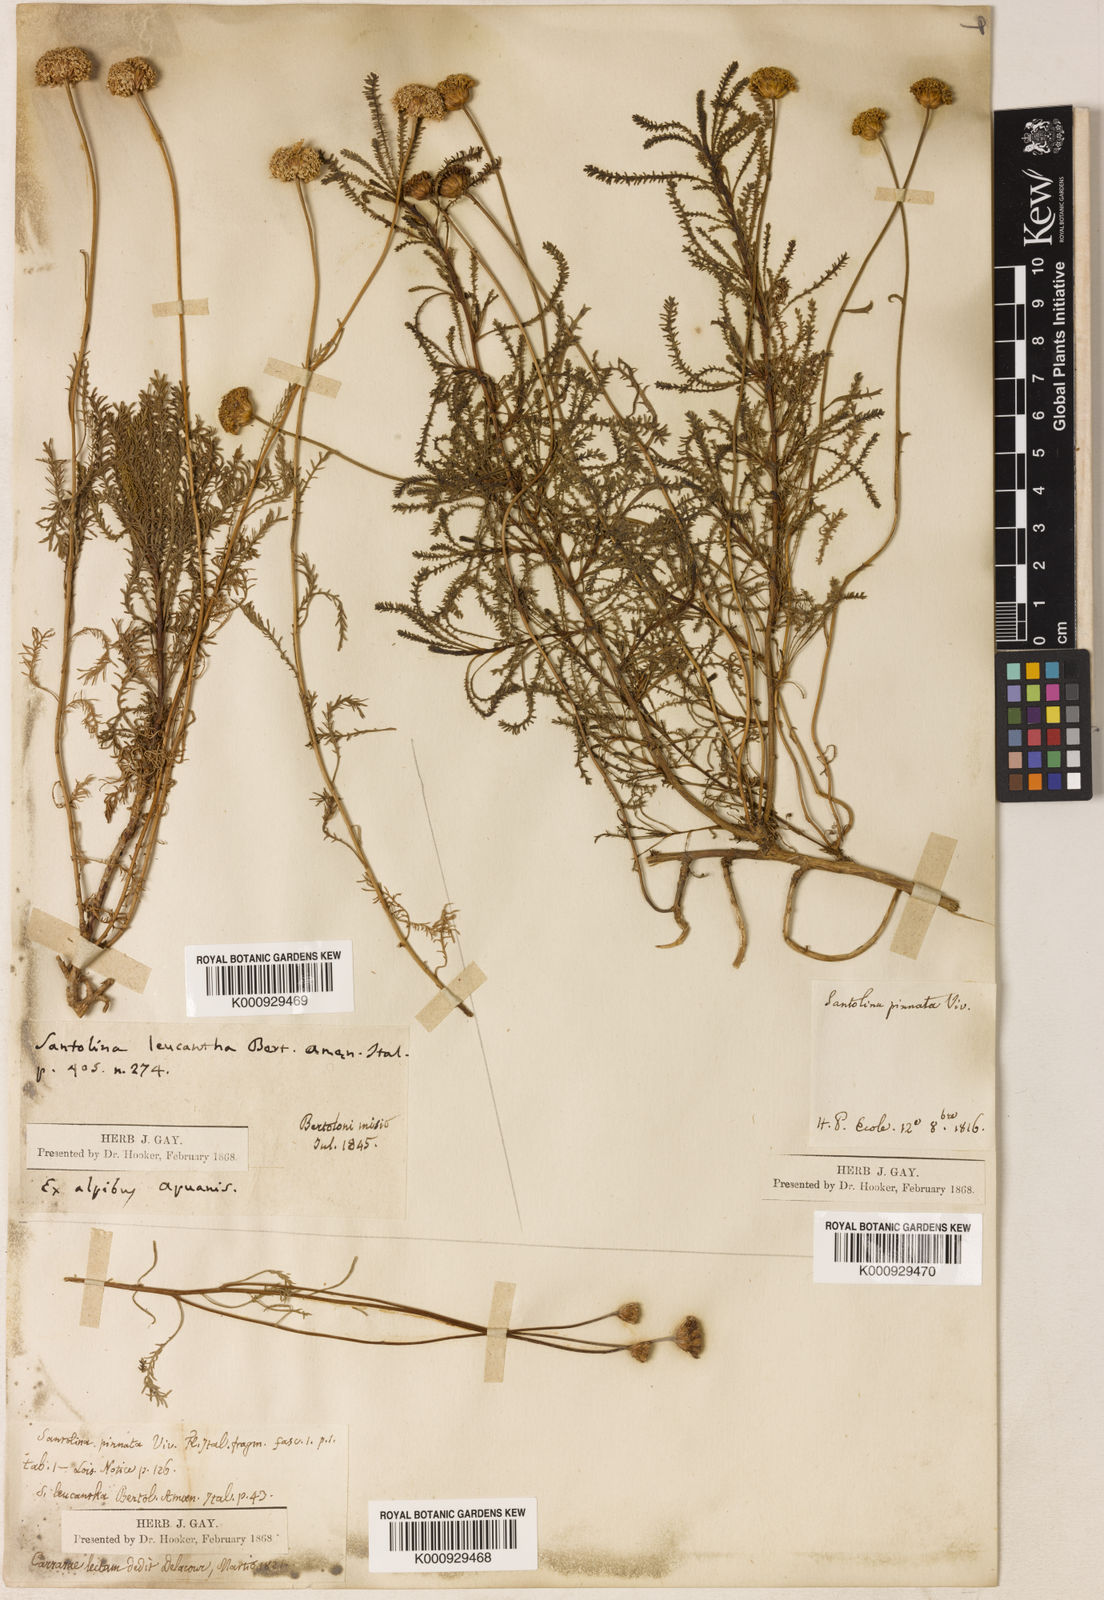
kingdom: Plantae
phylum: Tracheophyta
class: Magnoliopsida
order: Asterales
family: Asteraceae
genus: Santolina
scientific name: Santolina chamaecyparissus
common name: Lavender-cotton
